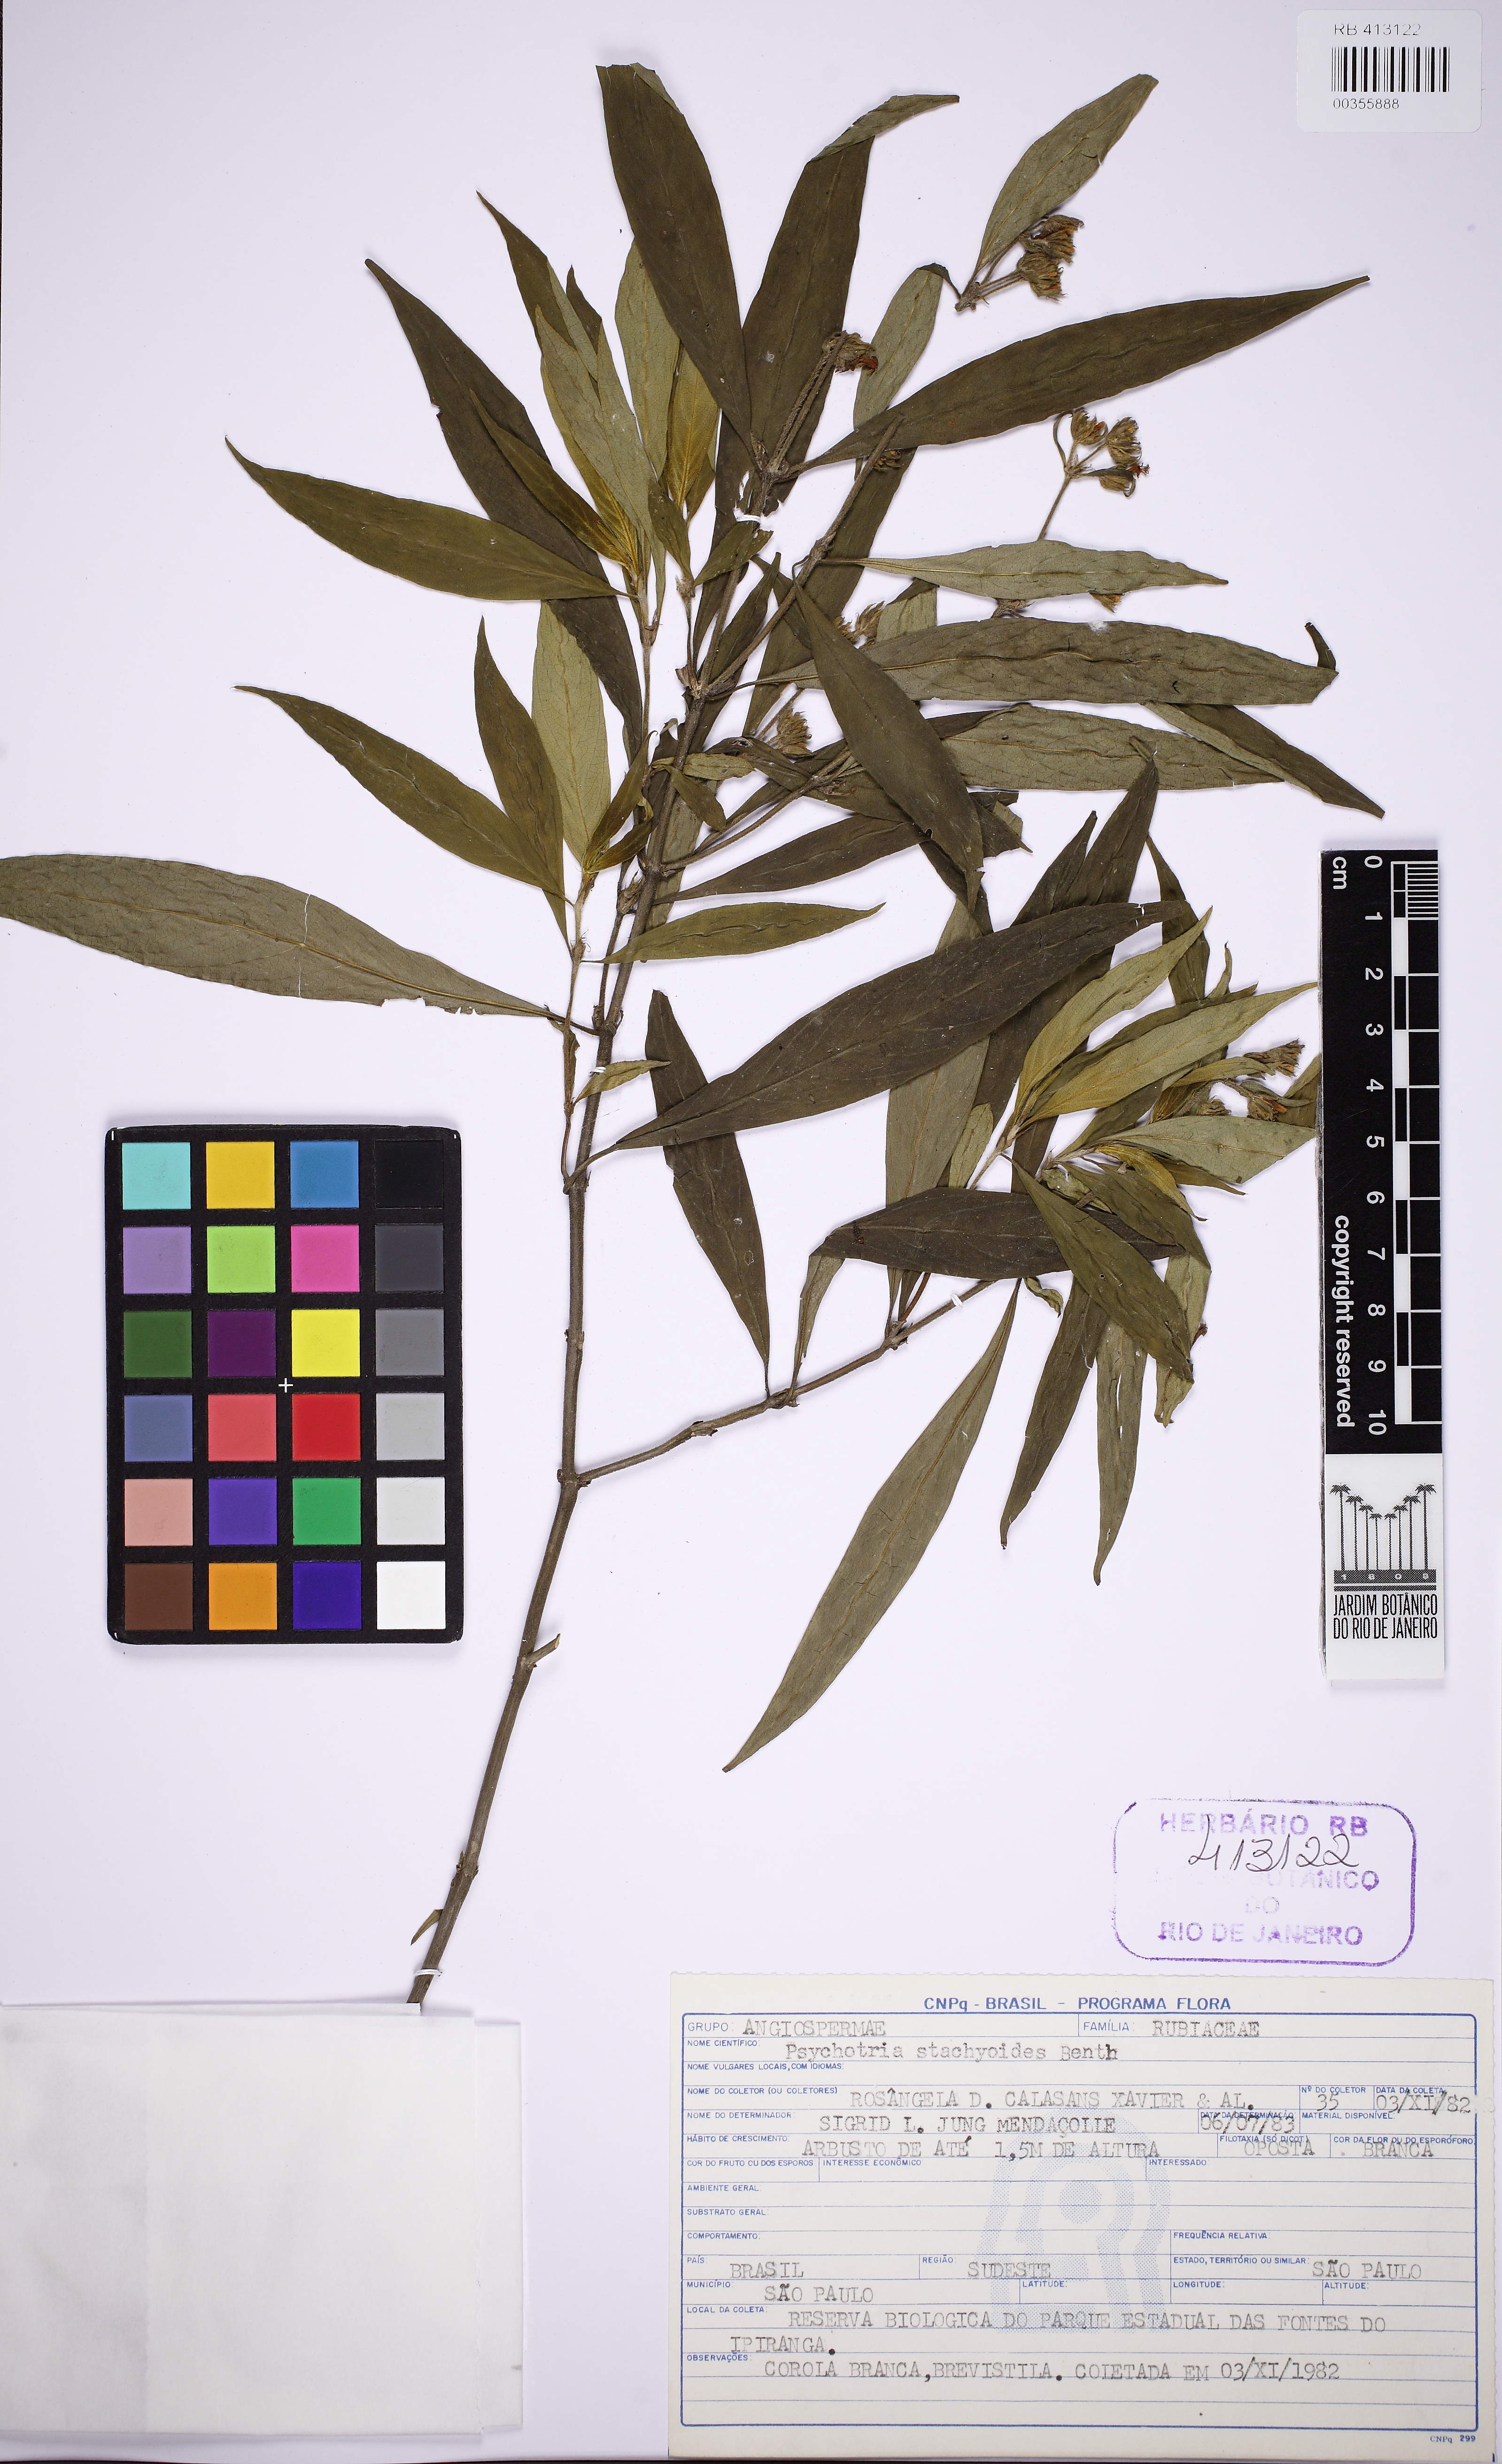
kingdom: Plantae
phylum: Tracheophyta
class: Magnoliopsida
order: Gentianales
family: Rubiaceae
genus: Psychotria
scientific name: Psychotria stachyoides
